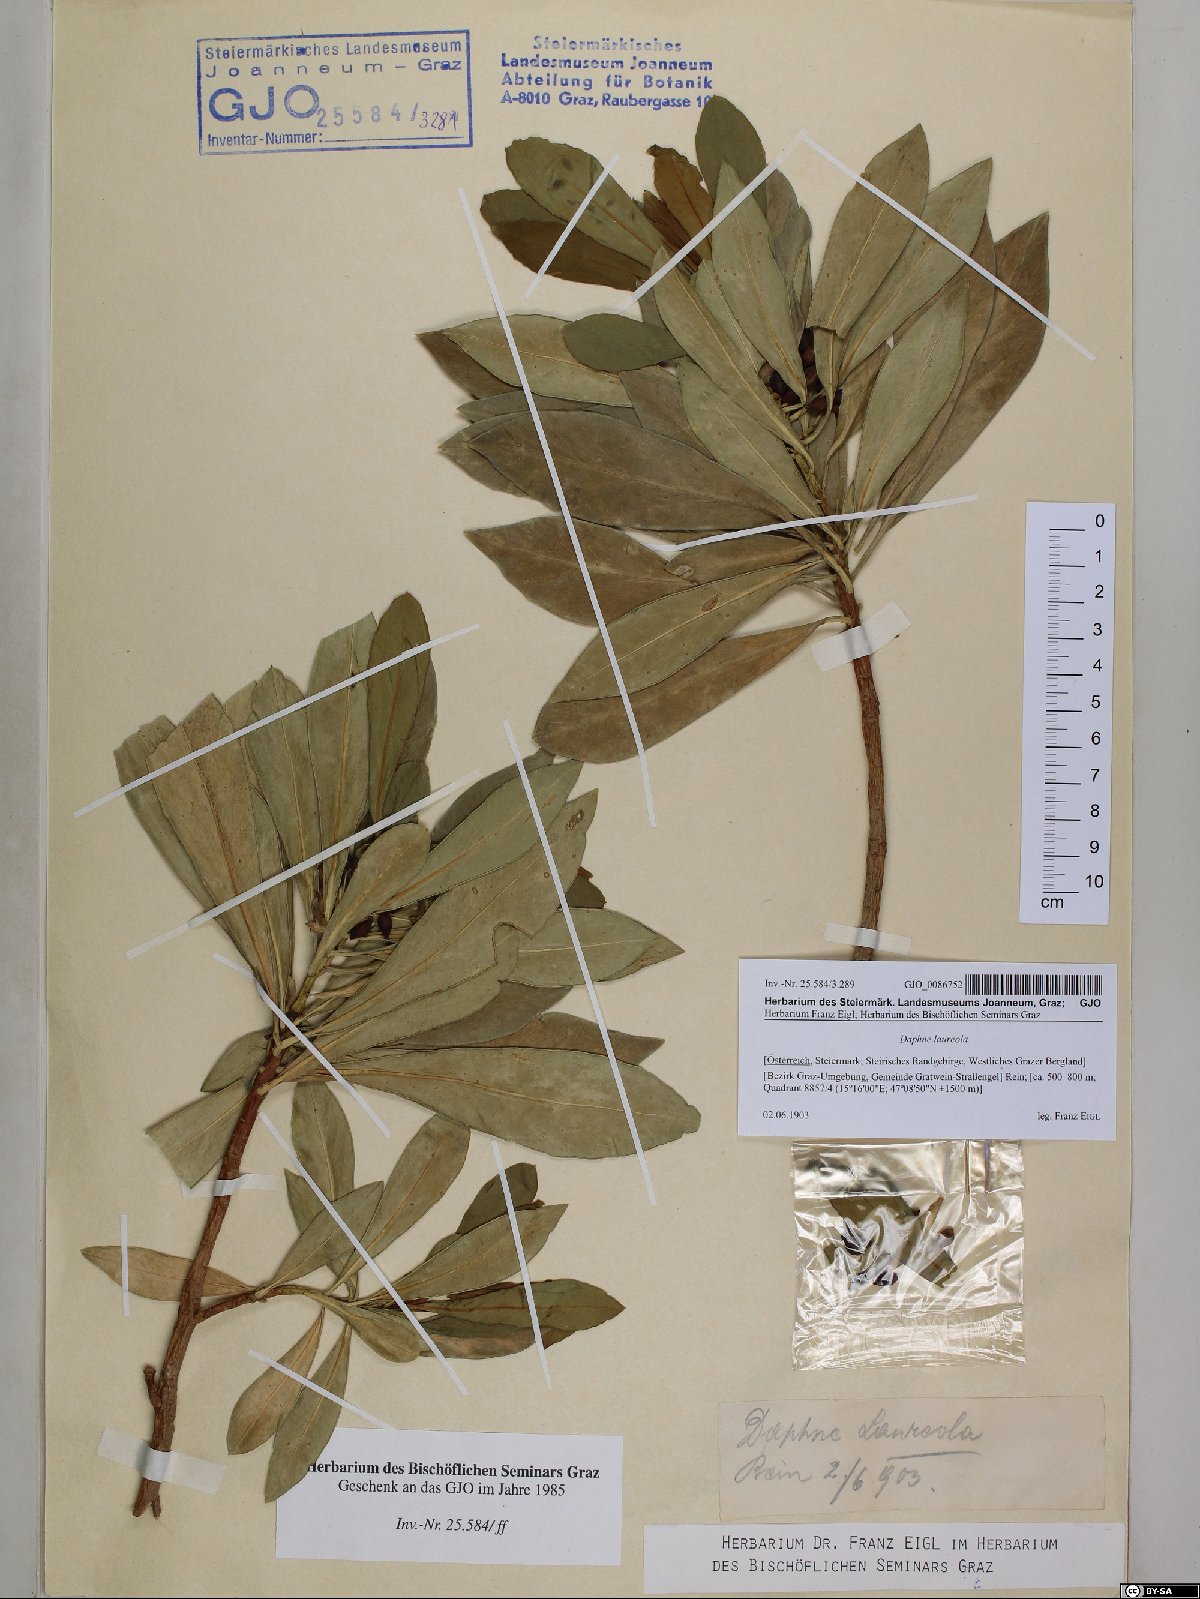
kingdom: Plantae
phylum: Tracheophyta
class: Magnoliopsida
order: Malvales
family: Thymelaeaceae
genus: Daphne
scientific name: Daphne laureola
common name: Spurge-laurel
